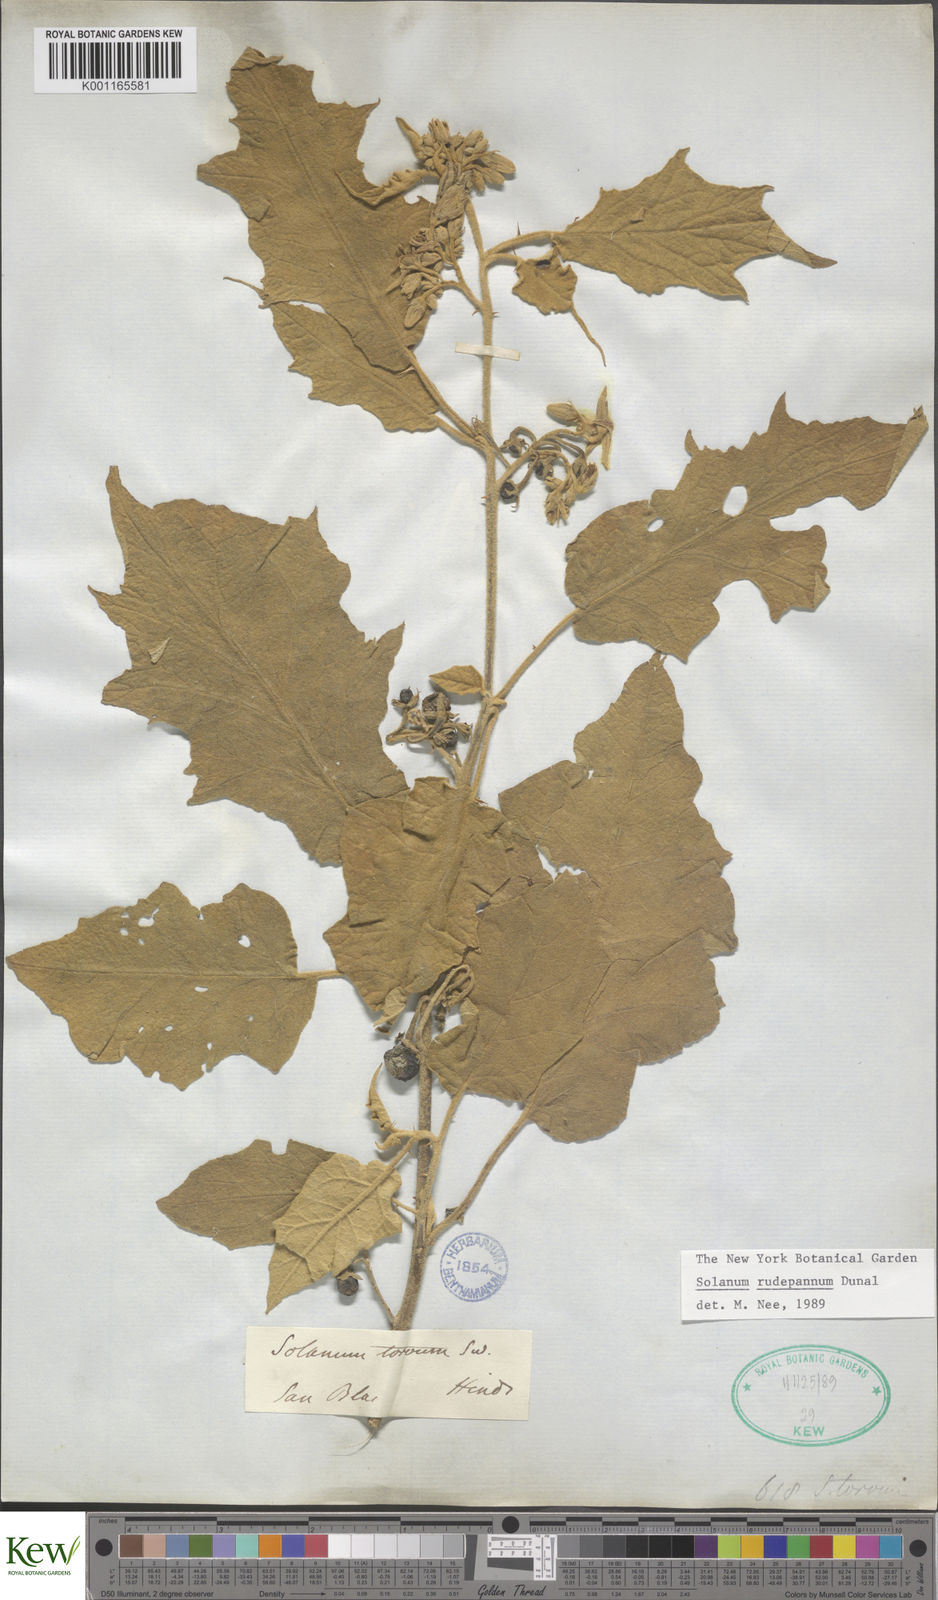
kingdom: Plantae
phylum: Tracheophyta
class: Magnoliopsida
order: Solanales
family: Solanaceae
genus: Solanum
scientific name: Solanum rude-pannum
